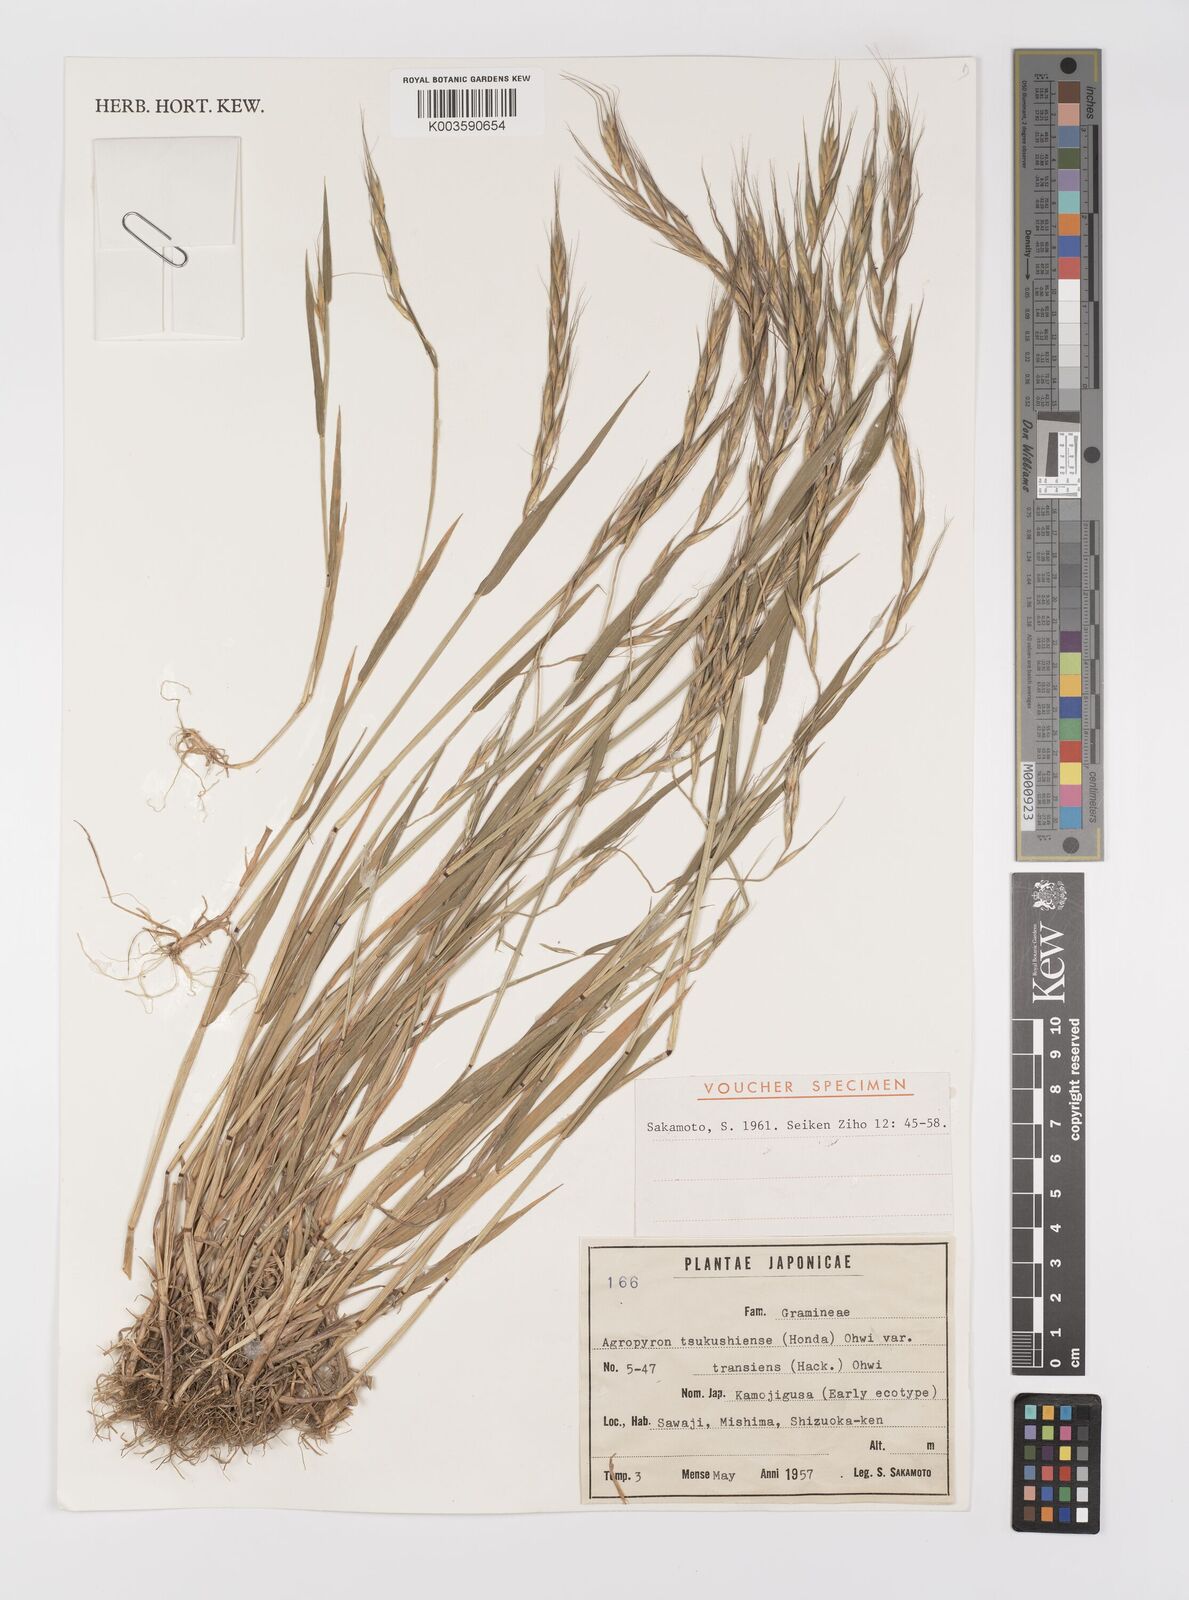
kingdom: Plantae
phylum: Tracheophyta
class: Liliopsida
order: Poales
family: Poaceae
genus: Elymus
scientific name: Elymus tsukushiensis
